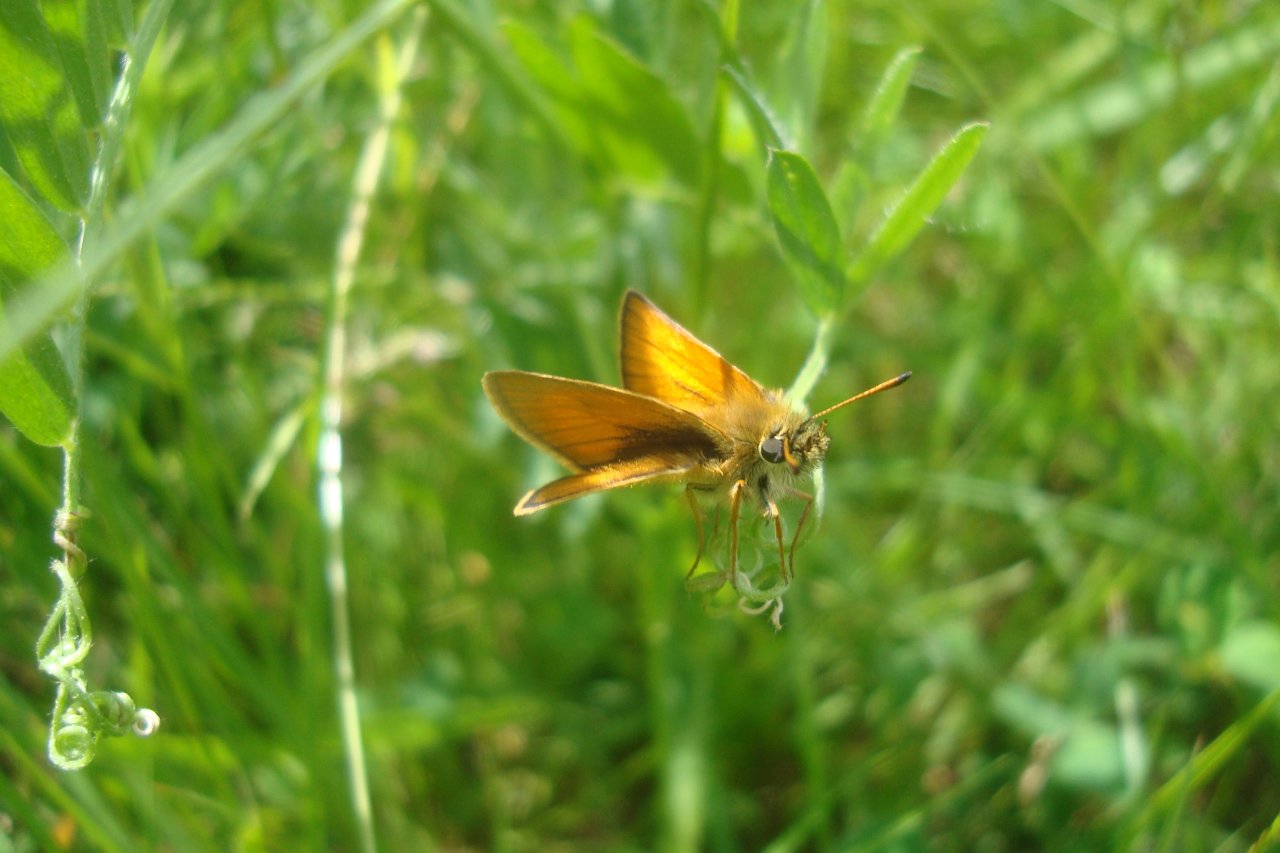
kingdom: Animalia
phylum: Arthropoda
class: Insecta
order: Lepidoptera
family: Hesperiidae
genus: Thymelicus
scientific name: Thymelicus lineola
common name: European Skipper
